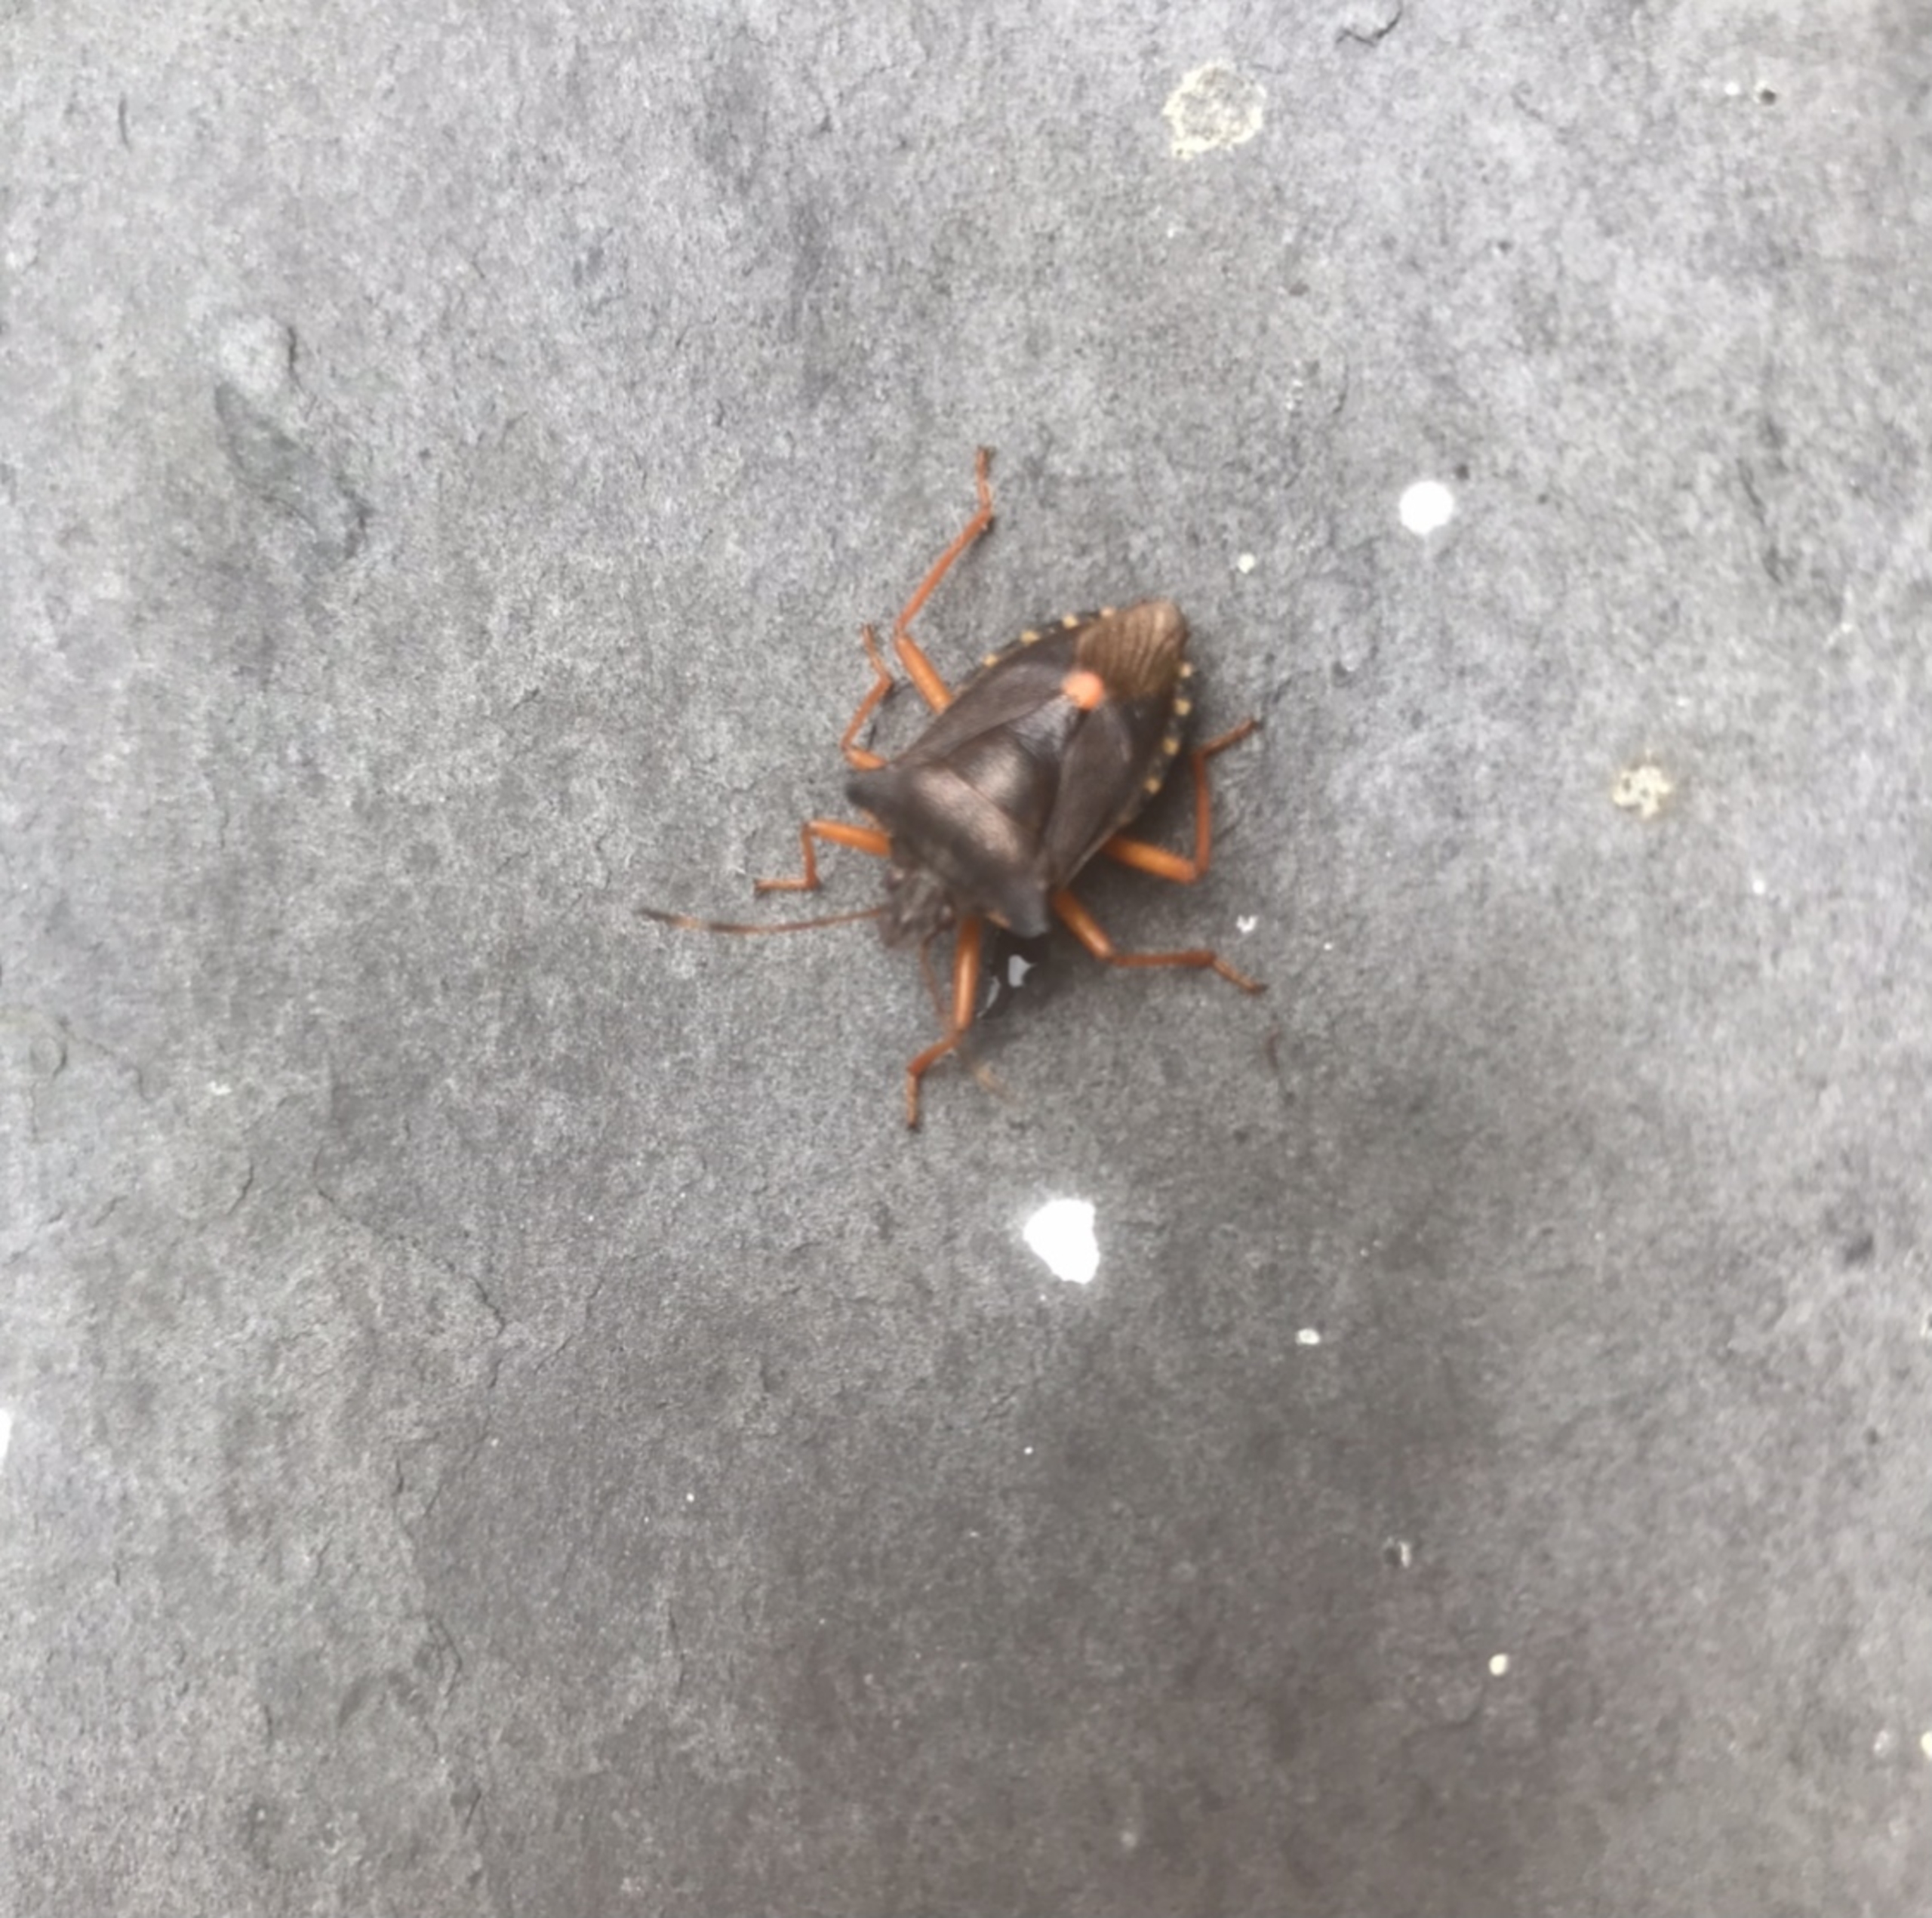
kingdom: Animalia
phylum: Arthropoda
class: Insecta
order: Hemiptera
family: Pentatomidae
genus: Pentatoma
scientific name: Pentatoma rufipes
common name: Rødbenet bredtæge
